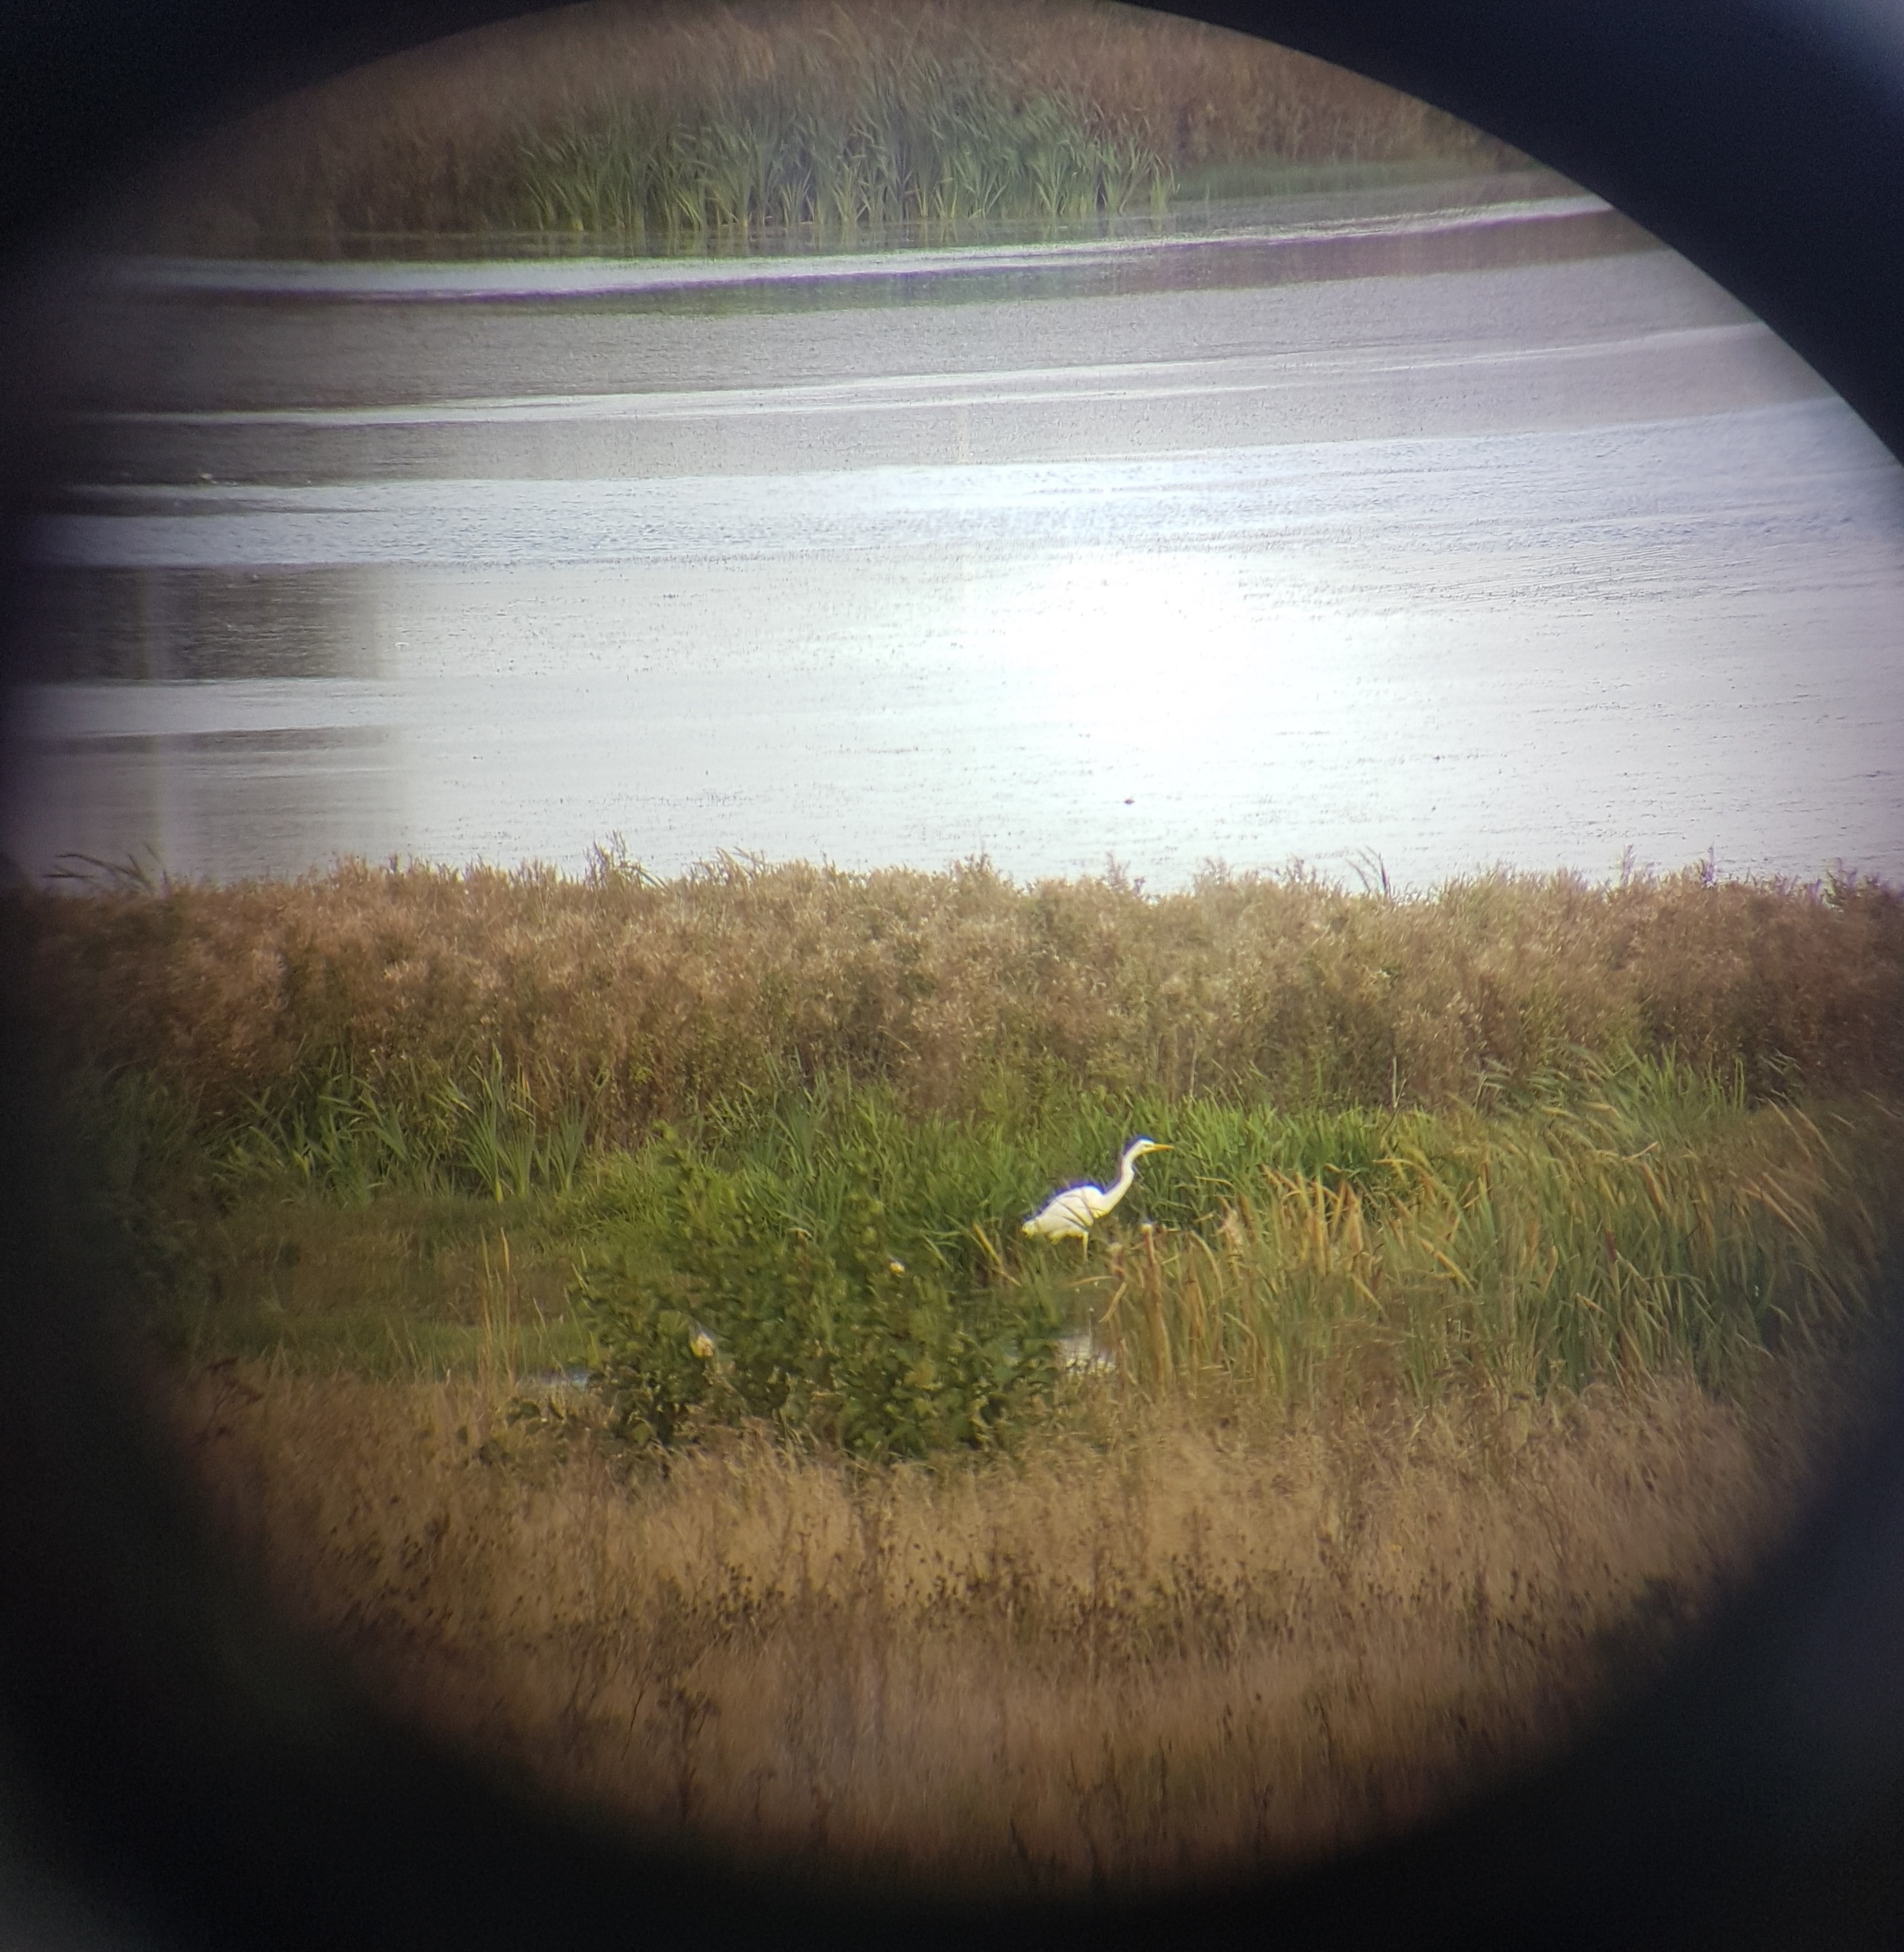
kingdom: Animalia
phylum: Chordata
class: Aves
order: Pelecaniformes
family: Ardeidae
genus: Ardea
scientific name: Ardea alba
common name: Sølvhejre
